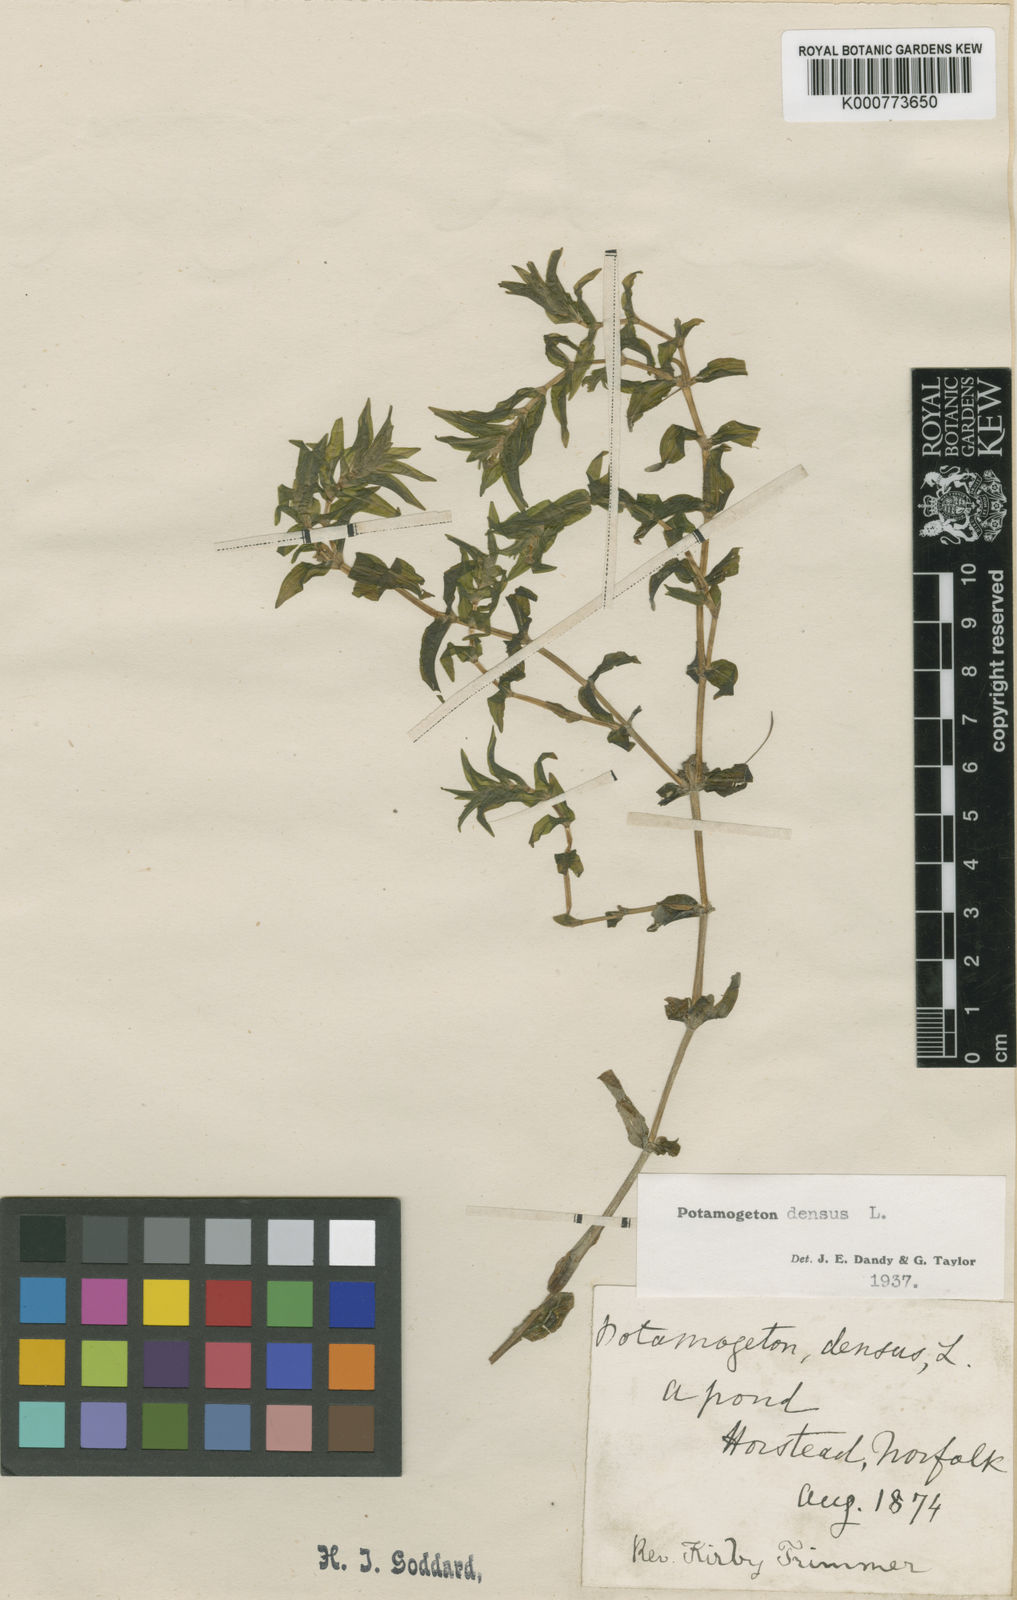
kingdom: Plantae
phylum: Tracheophyta
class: Liliopsida
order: Alismatales
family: Potamogetonaceae
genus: Groenlandia
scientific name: Groenlandia densa
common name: Opposite-leaved pondweed
